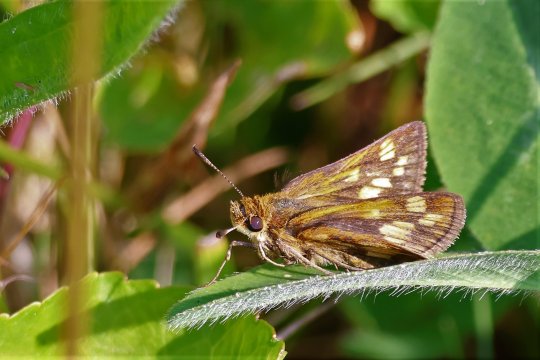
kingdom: Animalia
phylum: Arthropoda
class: Insecta
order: Lepidoptera
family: Hesperiidae
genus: Polites
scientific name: Polites coras
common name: Peck's Skipper
